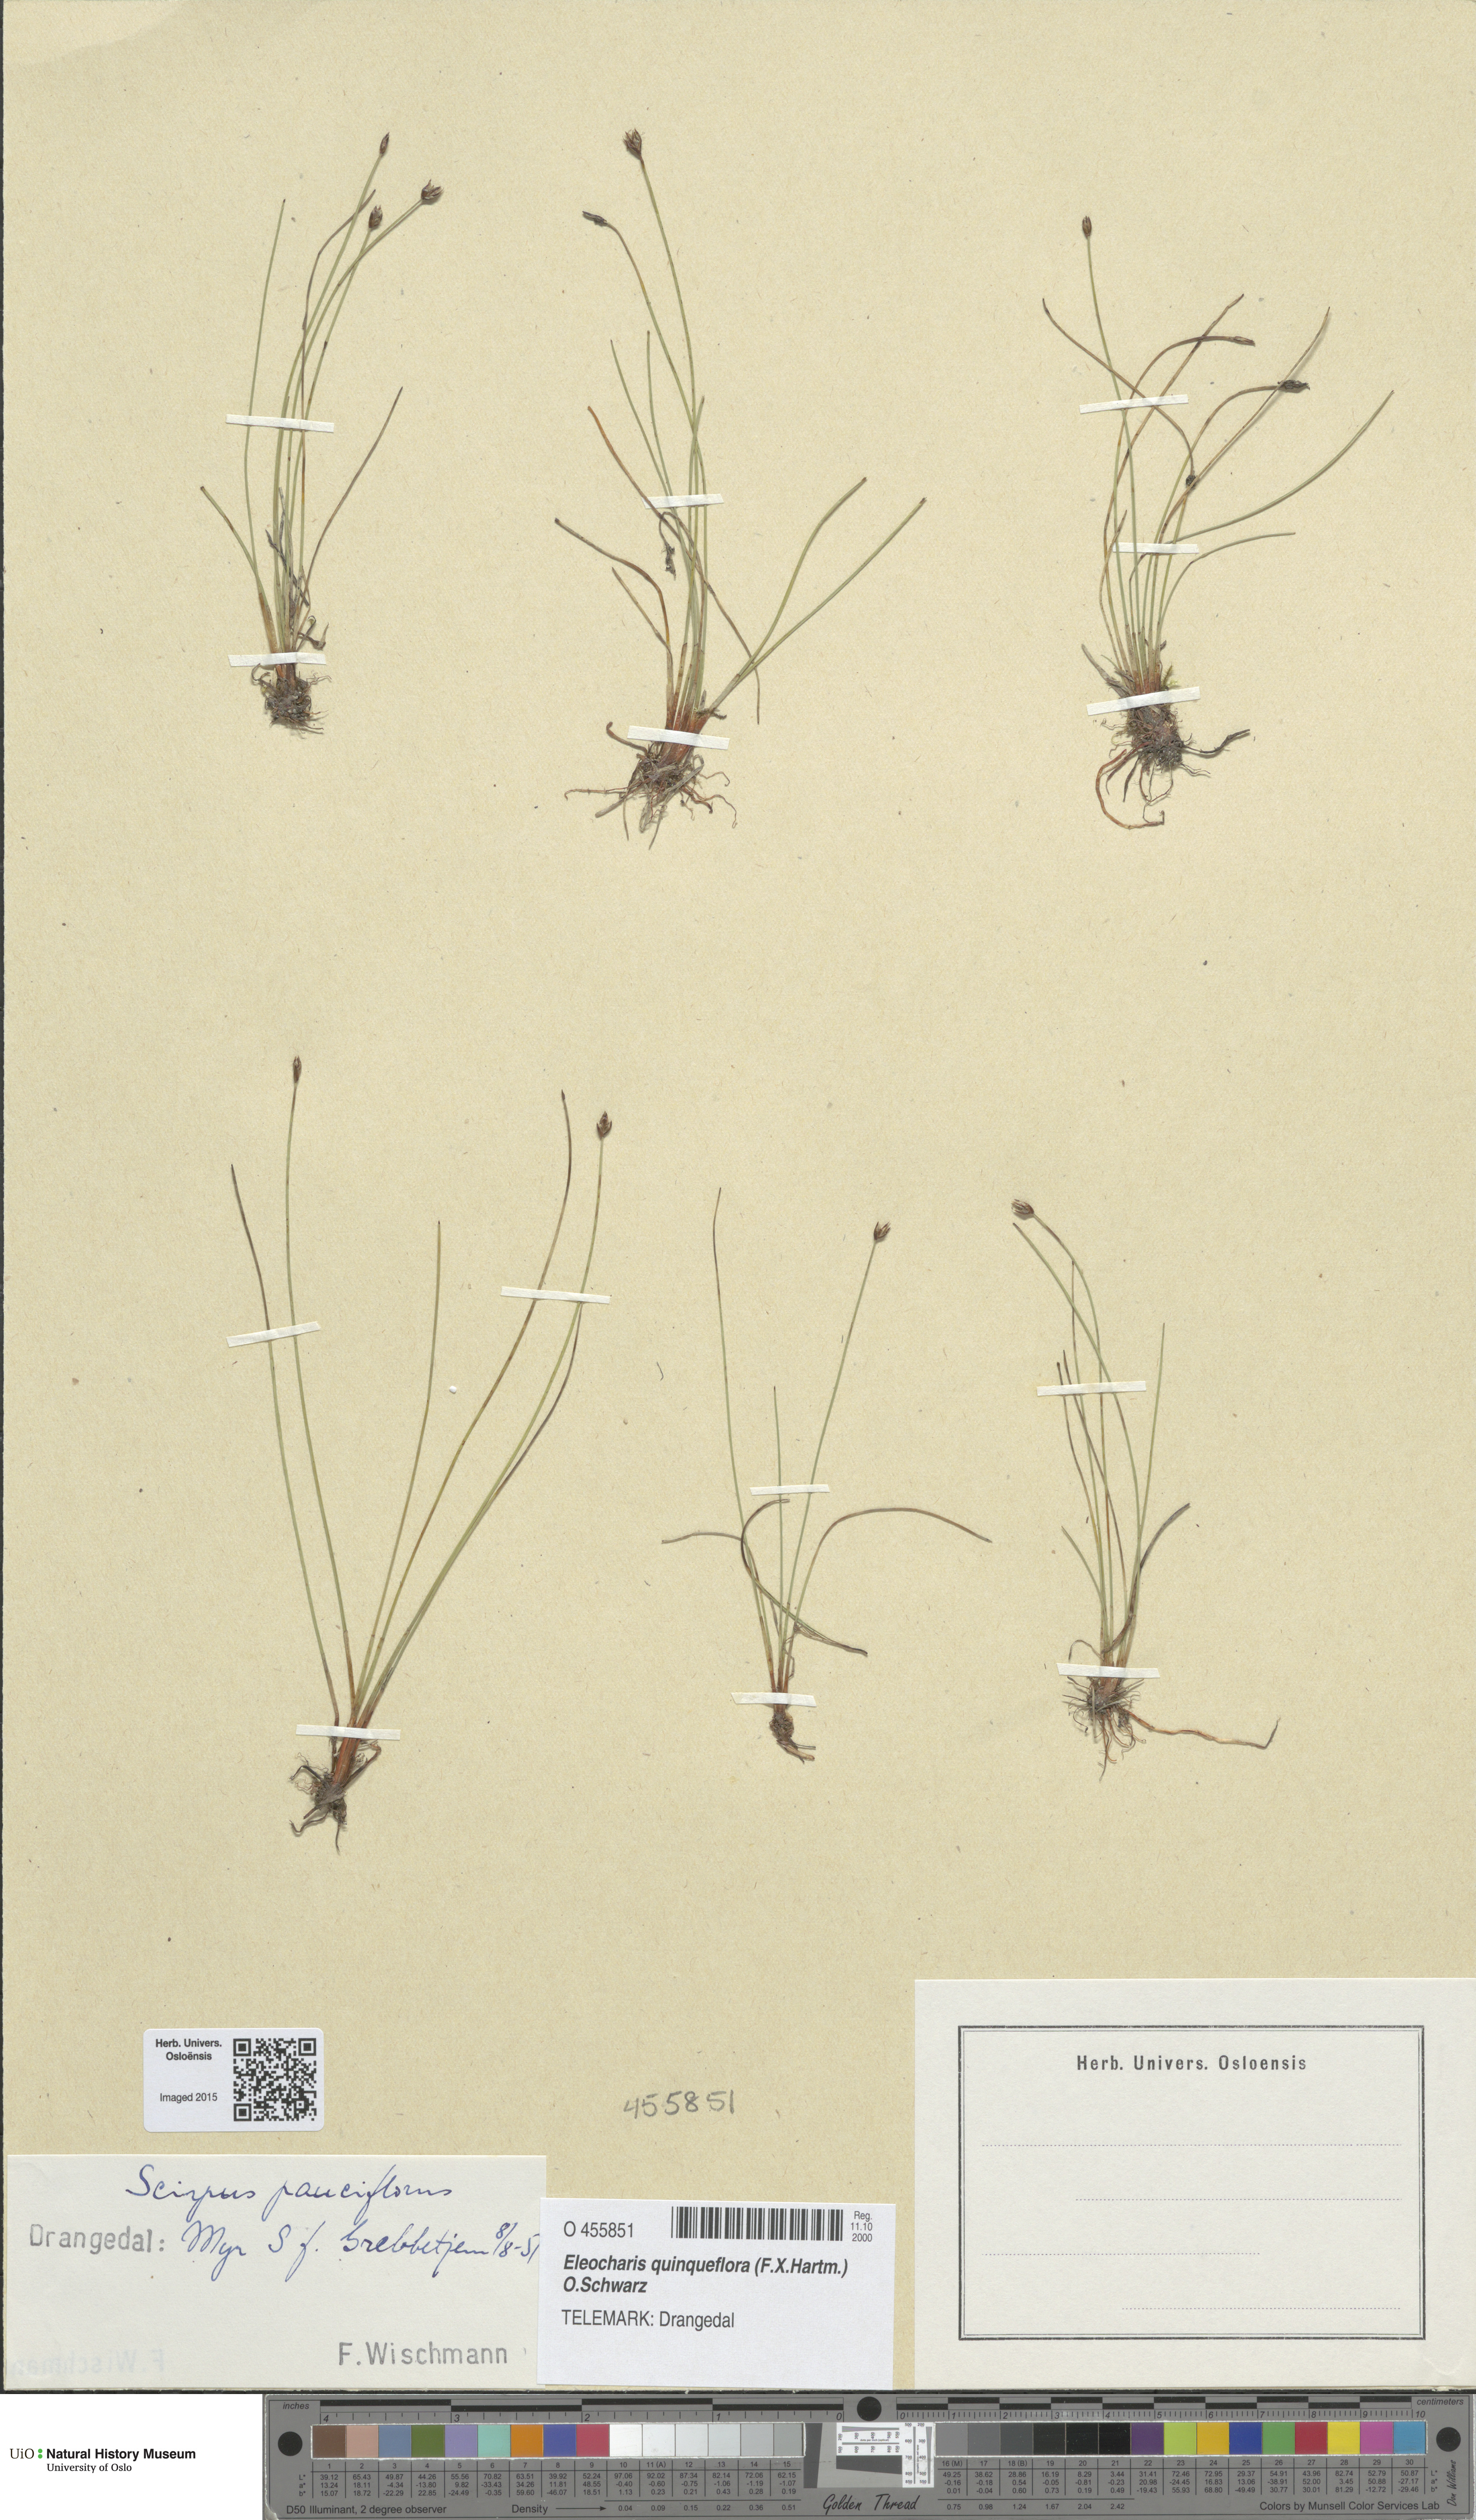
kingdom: Plantae
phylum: Tracheophyta
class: Liliopsida
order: Poales
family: Cyperaceae
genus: Eleocharis
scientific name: Eleocharis quinqueflora
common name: Few-flowered spike-rush
